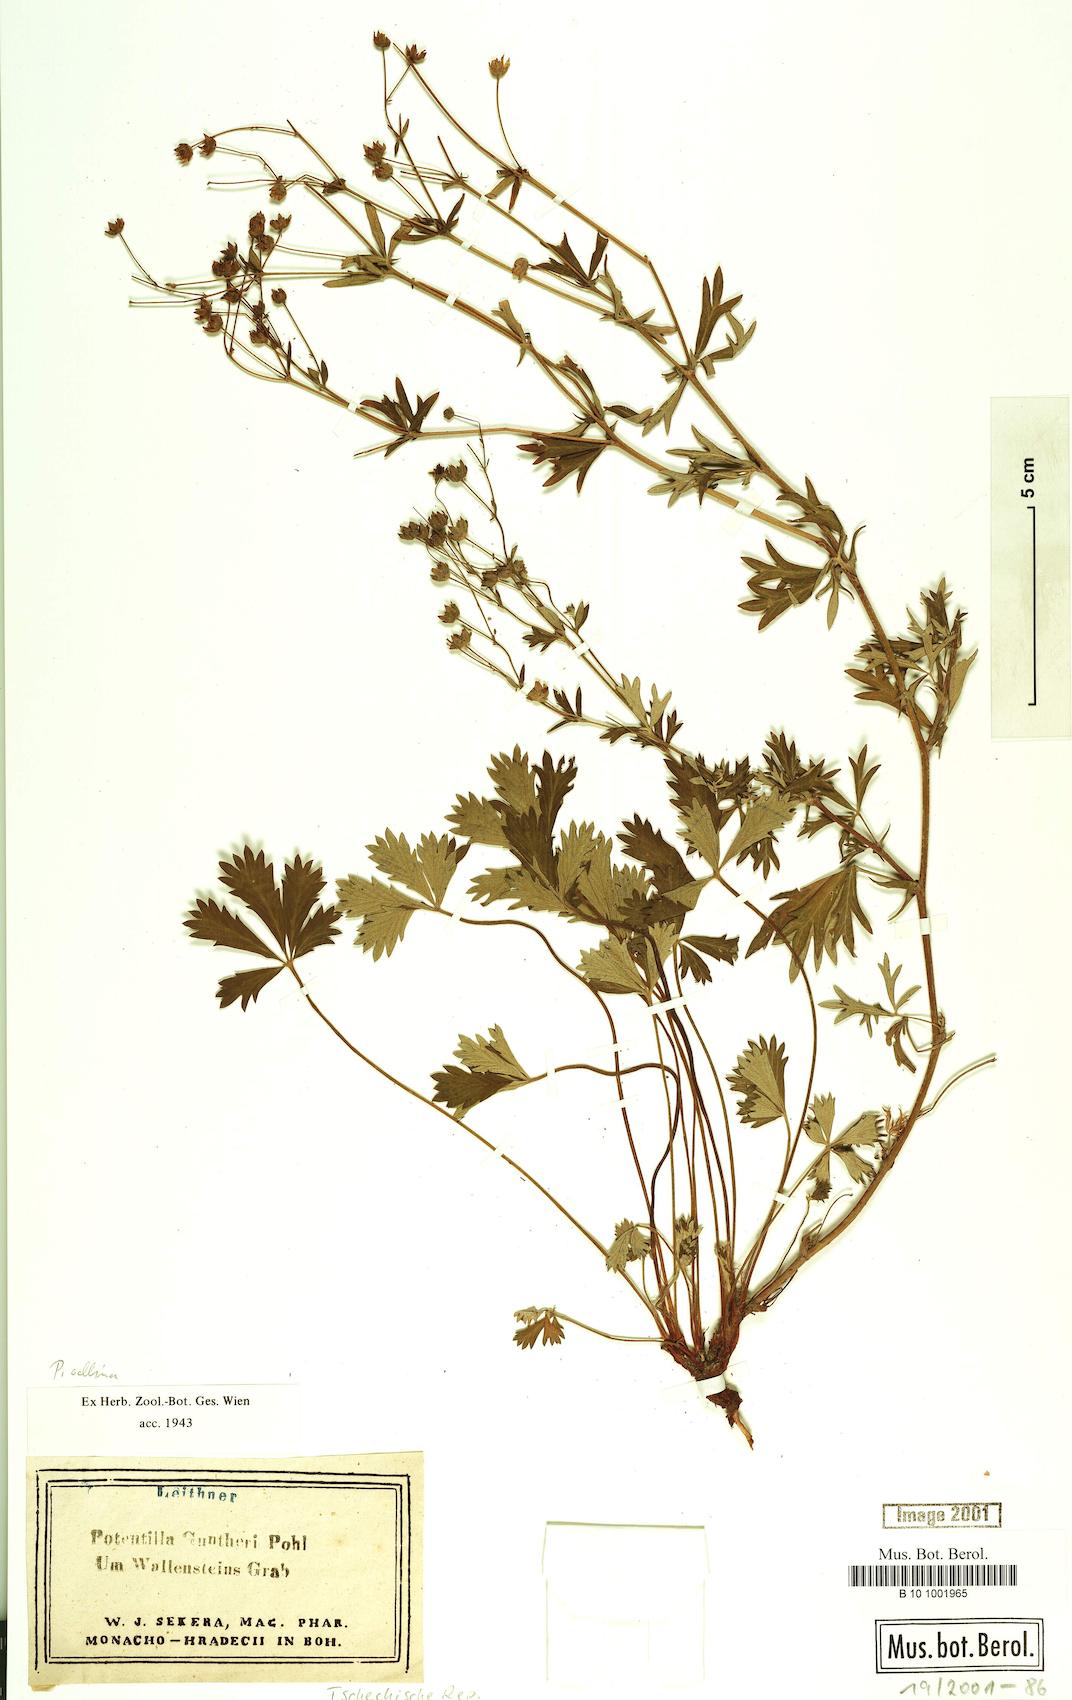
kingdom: Plantae
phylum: Tracheophyta
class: Magnoliopsida
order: Rosales
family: Rosaceae
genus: Potentilla
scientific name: Potentilla collina
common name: Palmleaf cinquefoil
